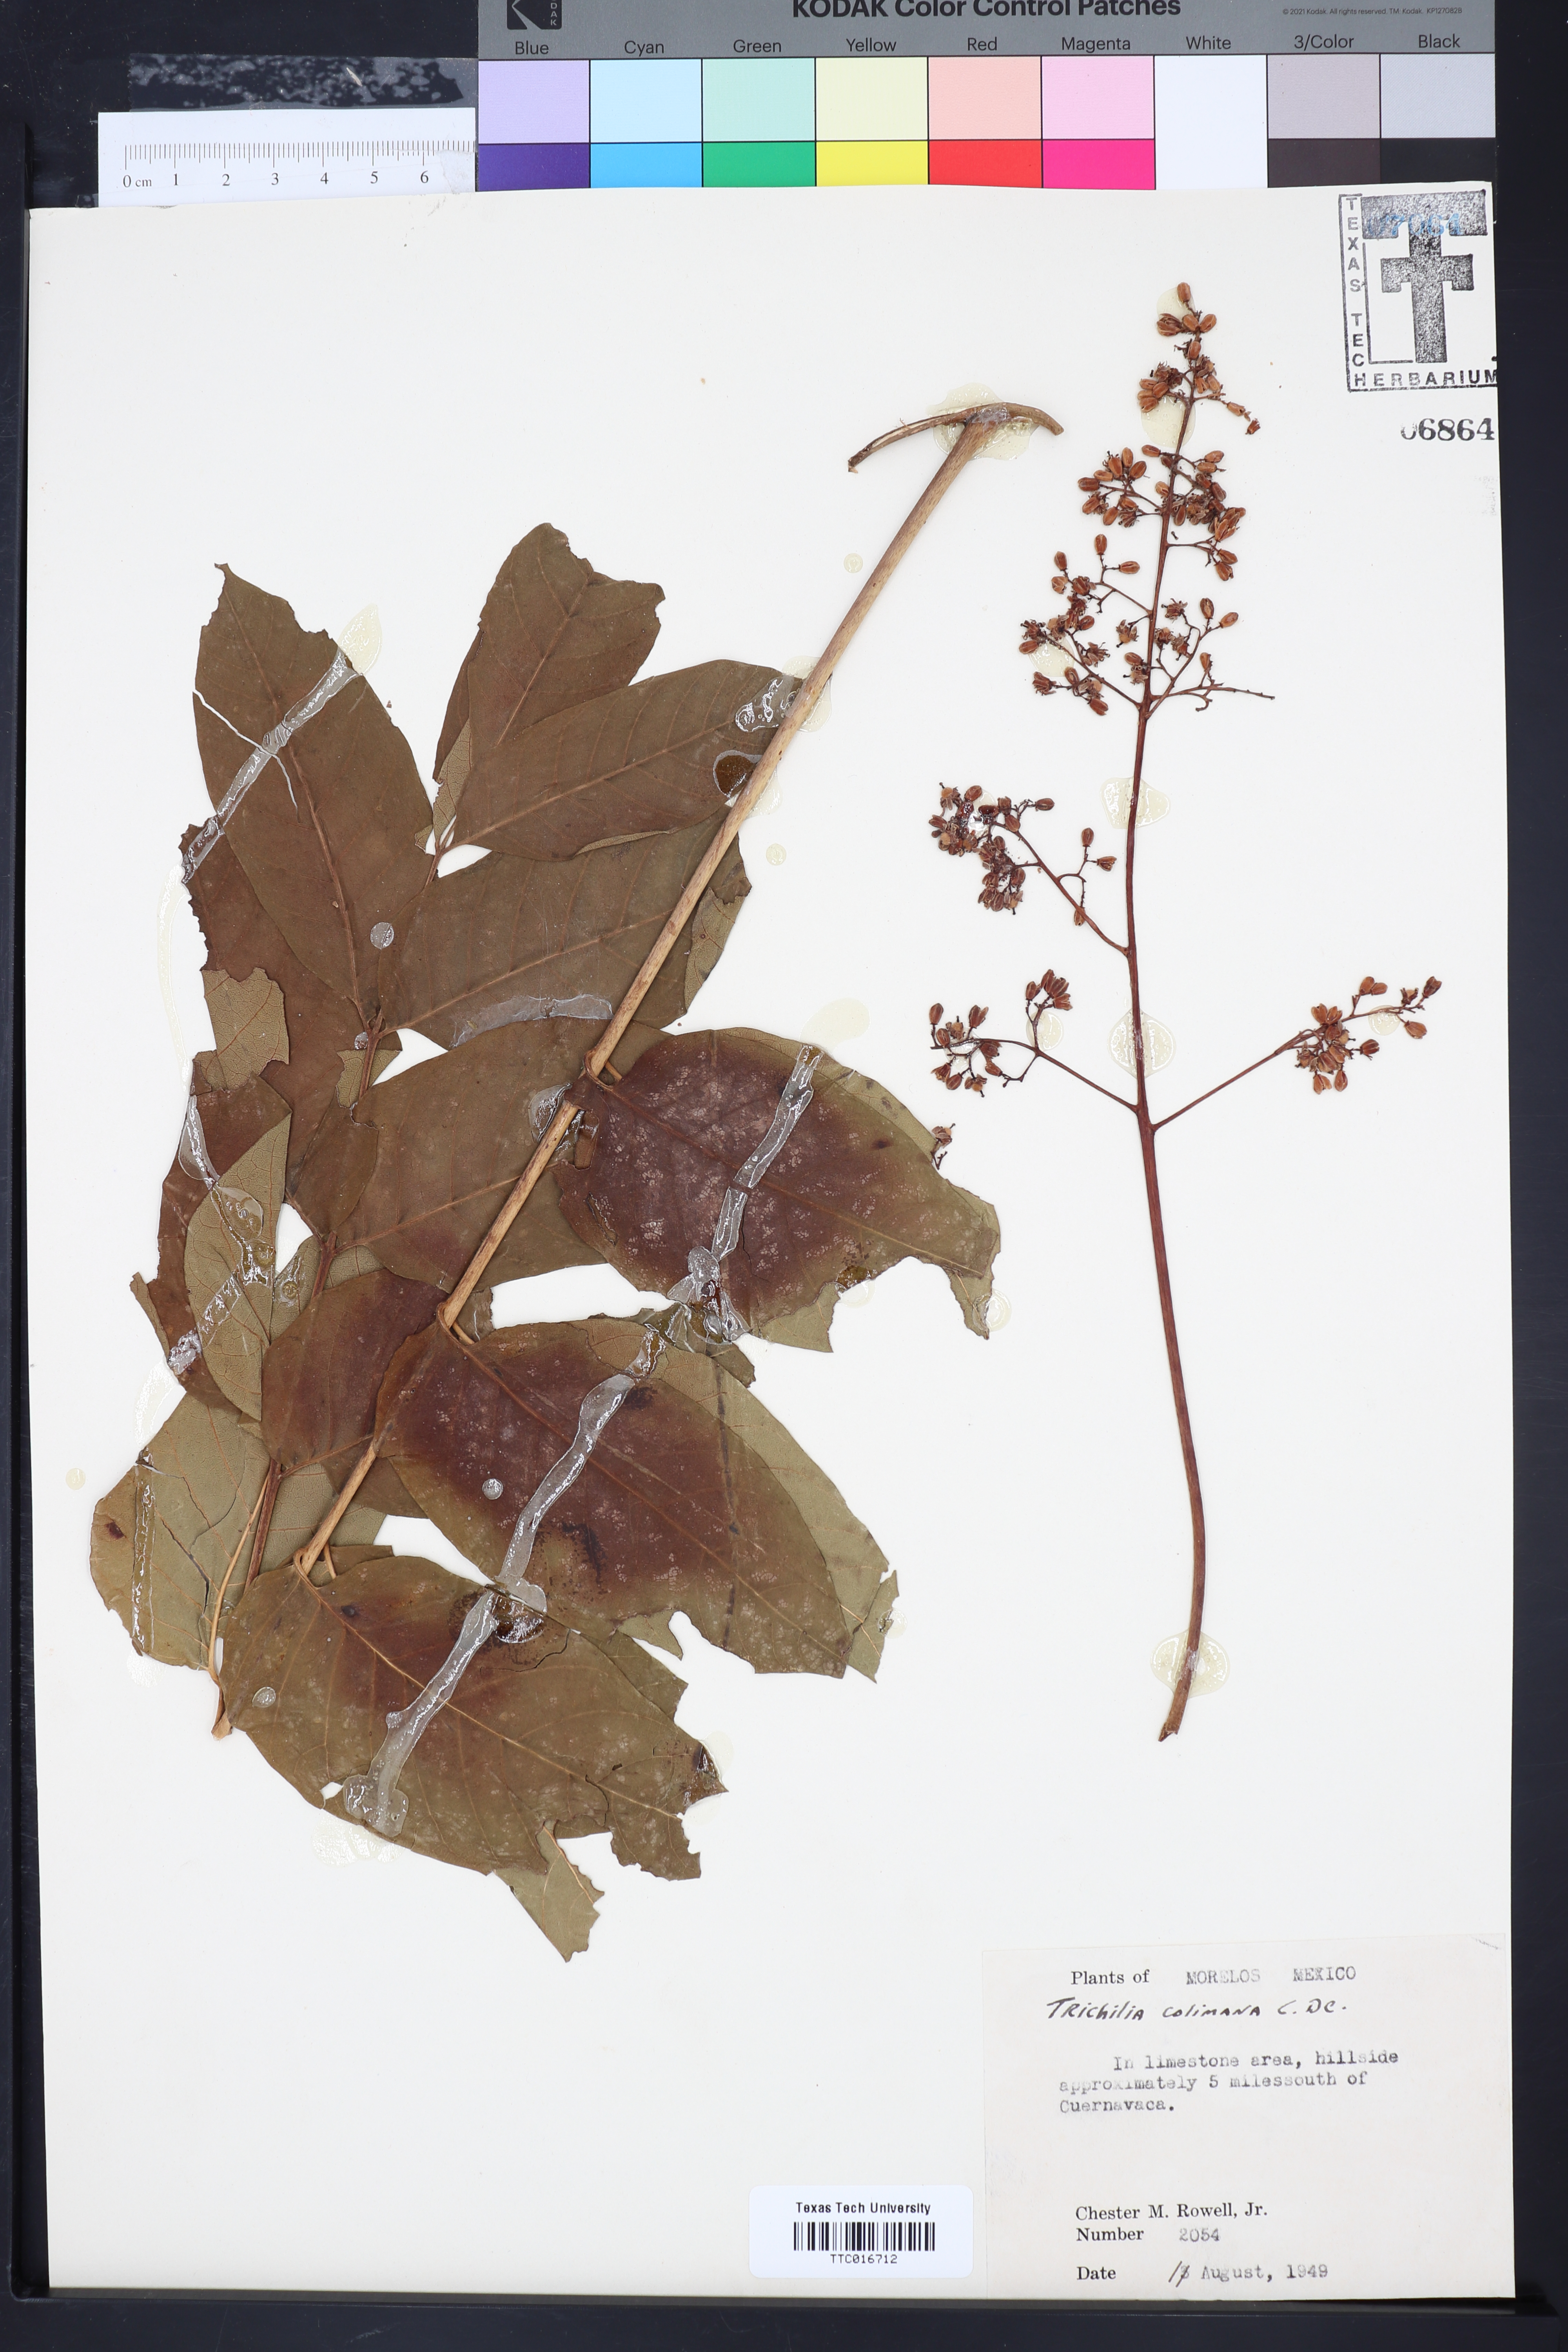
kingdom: Plantae
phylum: Tracheophyta
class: Magnoliopsida
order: Sapindales
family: Meliaceae
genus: Trichilia
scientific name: Trichilia americana
